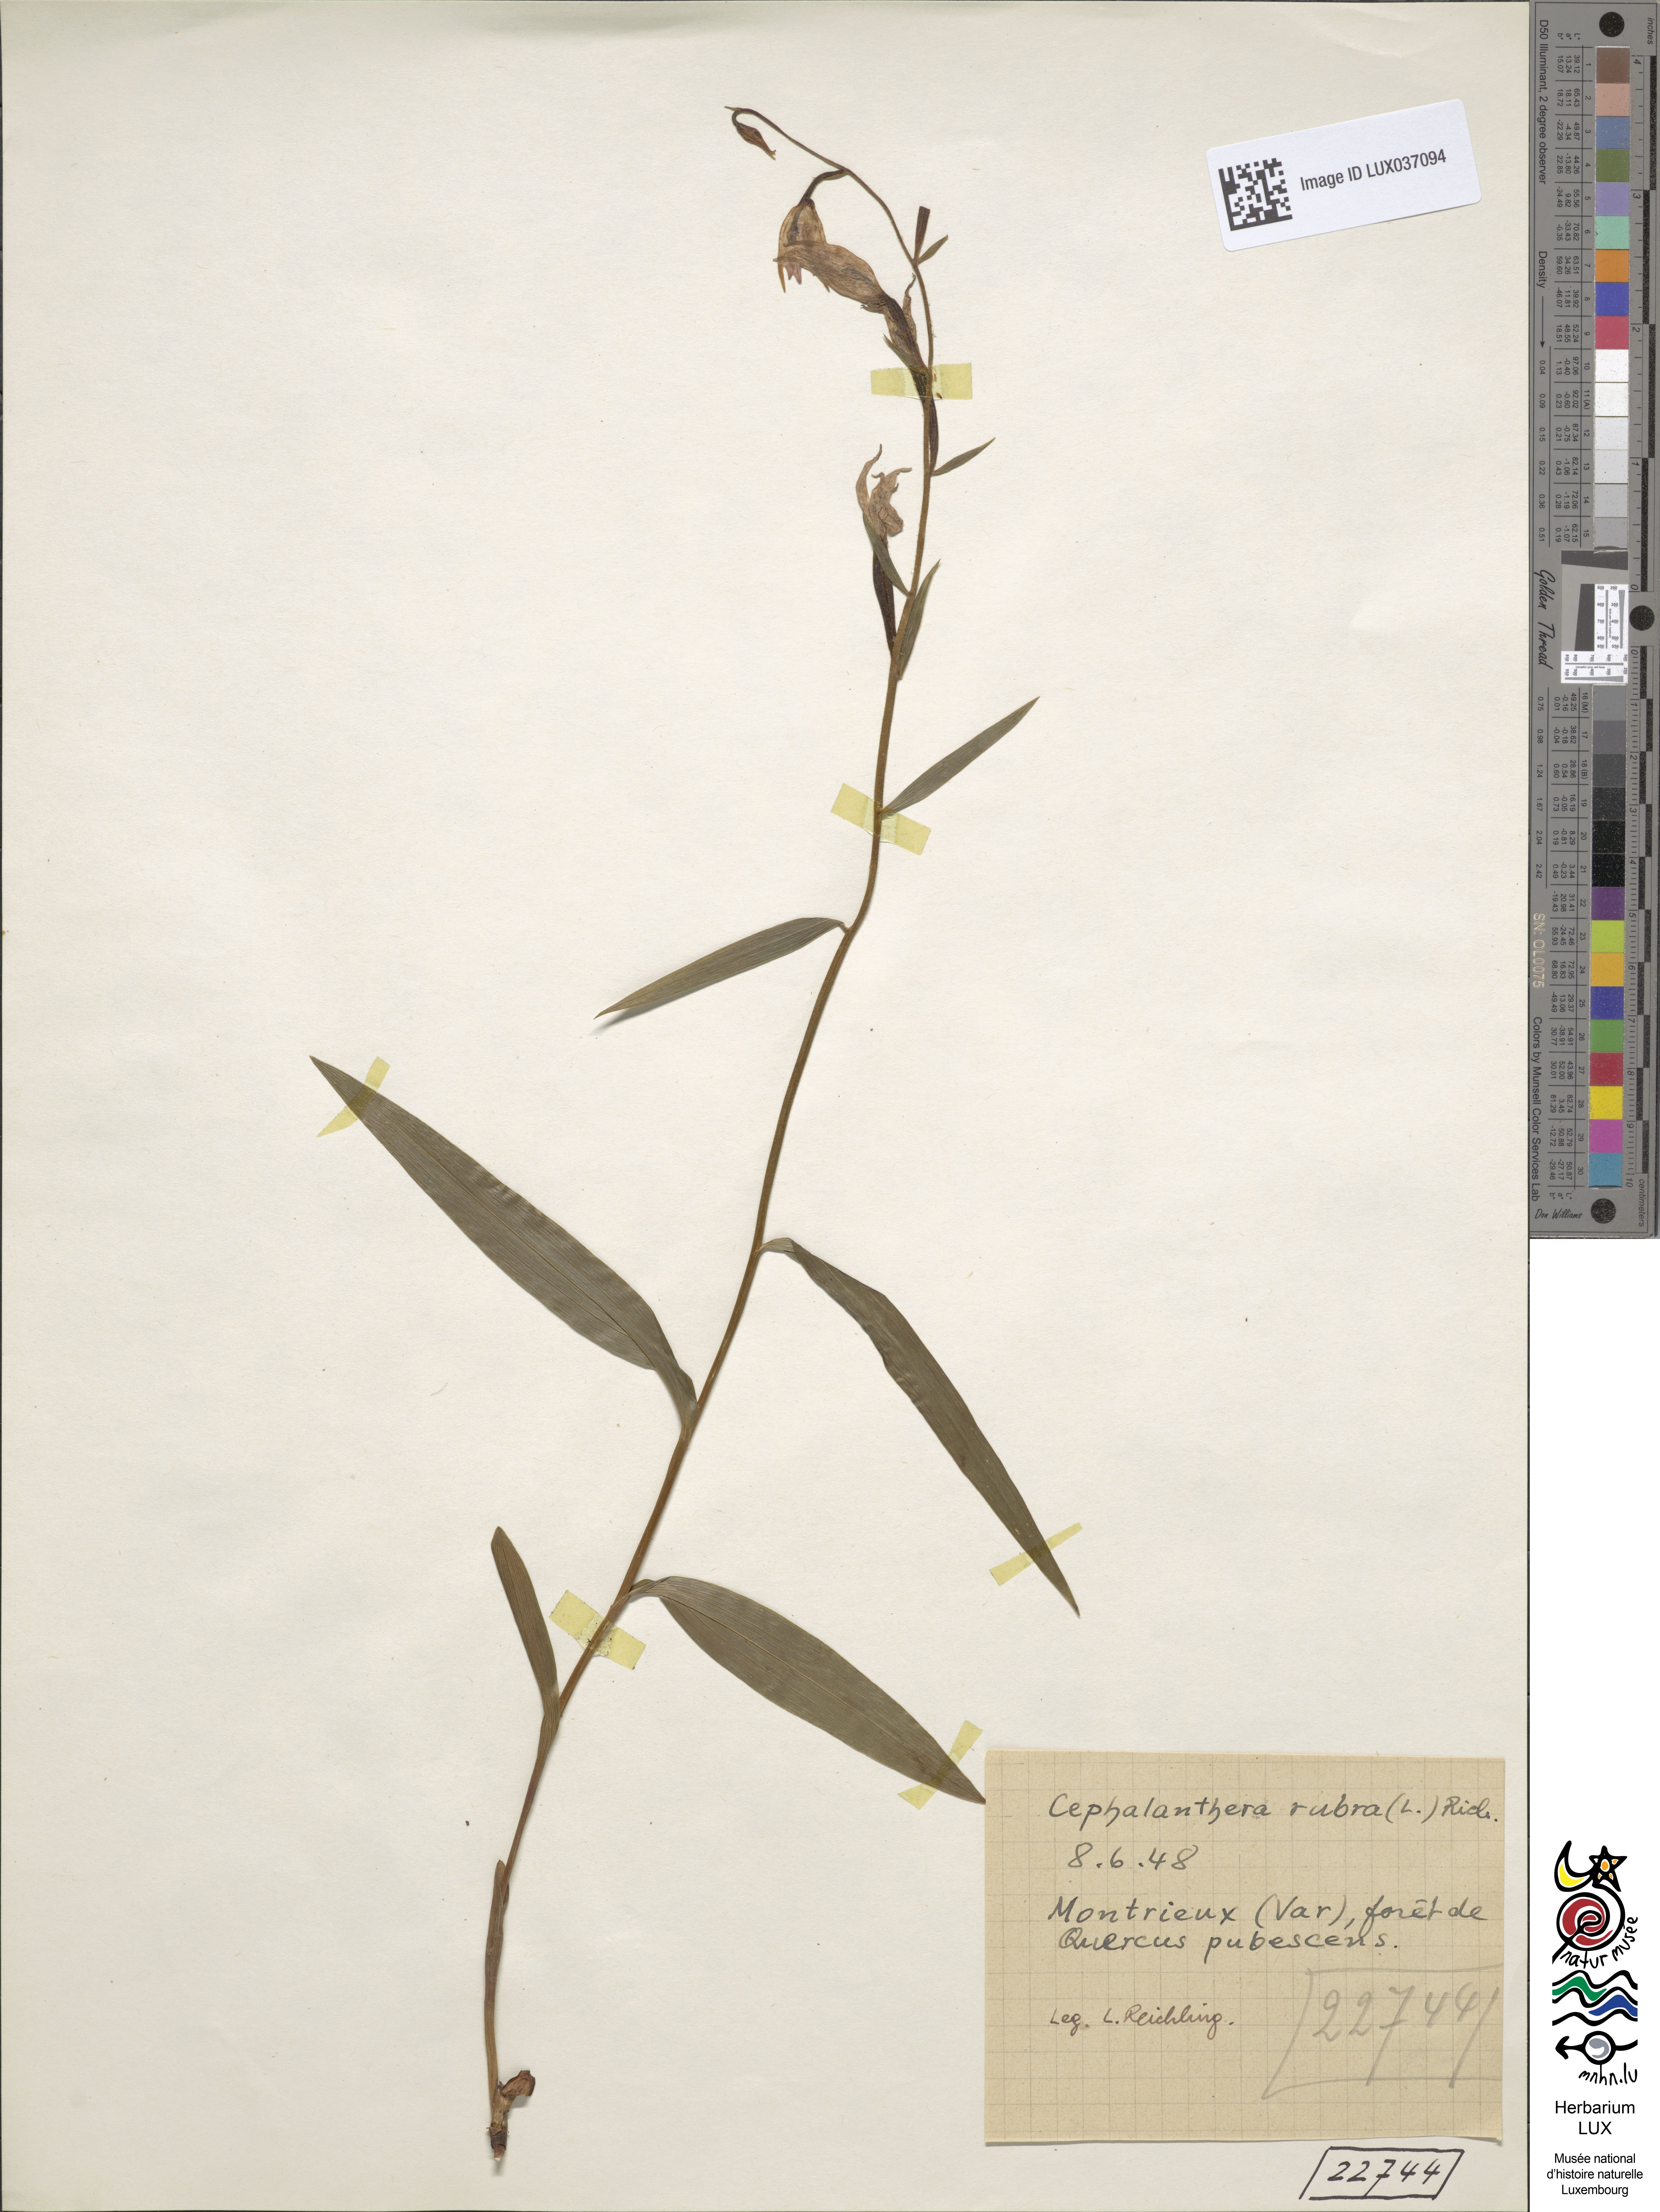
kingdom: Plantae
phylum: Tracheophyta
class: Liliopsida
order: Asparagales
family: Orchidaceae
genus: Cephalanthera
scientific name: Cephalanthera rubra
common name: Red helleborine
